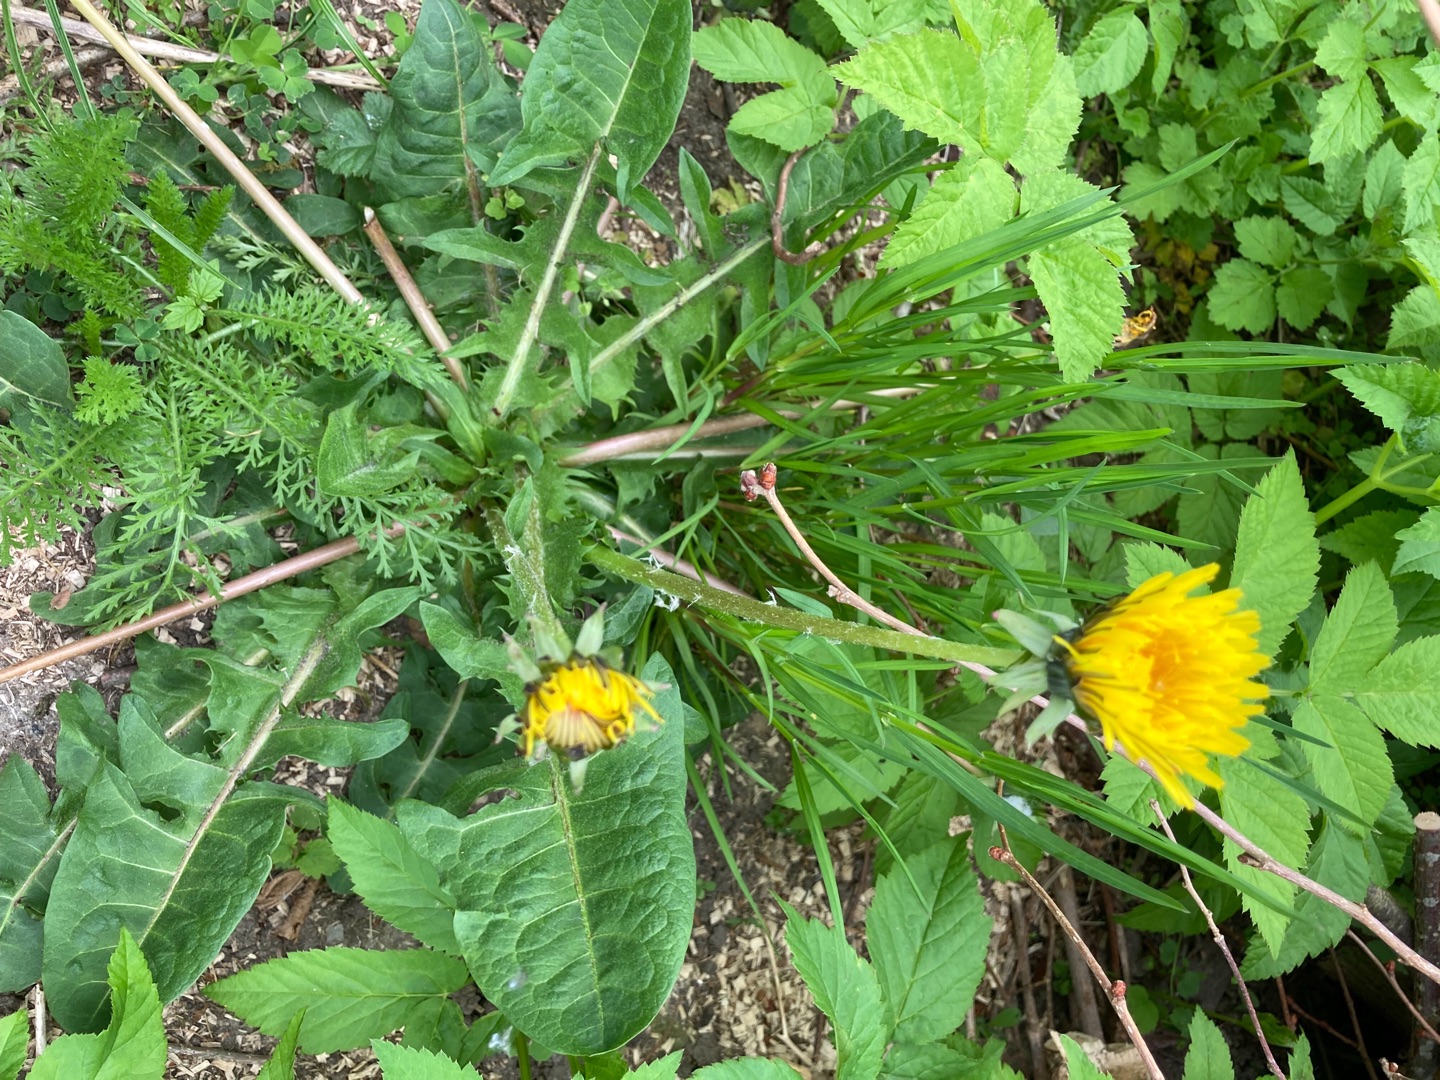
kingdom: Plantae
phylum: Tracheophyta
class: Magnoliopsida
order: Asterales
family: Asteraceae
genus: Taraxacum
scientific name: Taraxacum ancistrolobum
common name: Fed vejmælkebøtte
